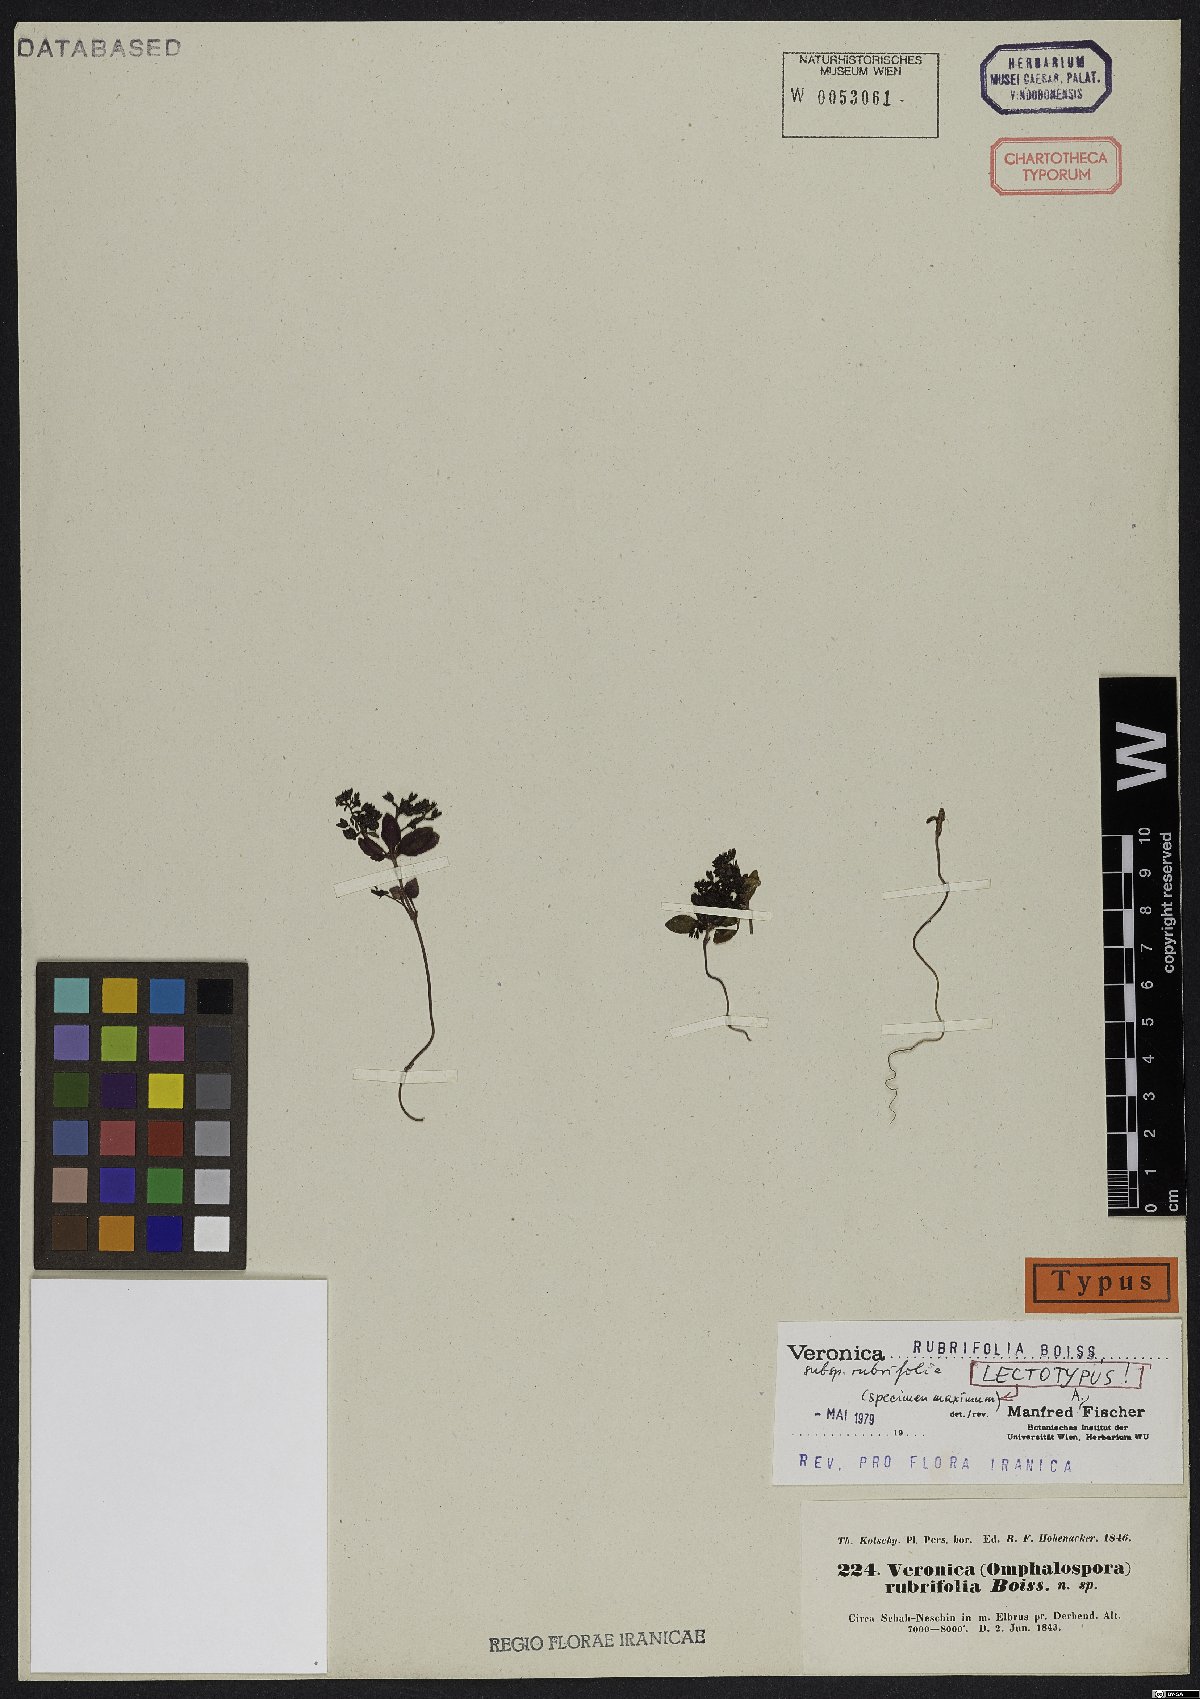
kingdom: Plantae
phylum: Tracheophyta
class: Magnoliopsida
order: Lamiales
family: Plantaginaceae
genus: Veronica
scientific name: Veronica rubrifolia
